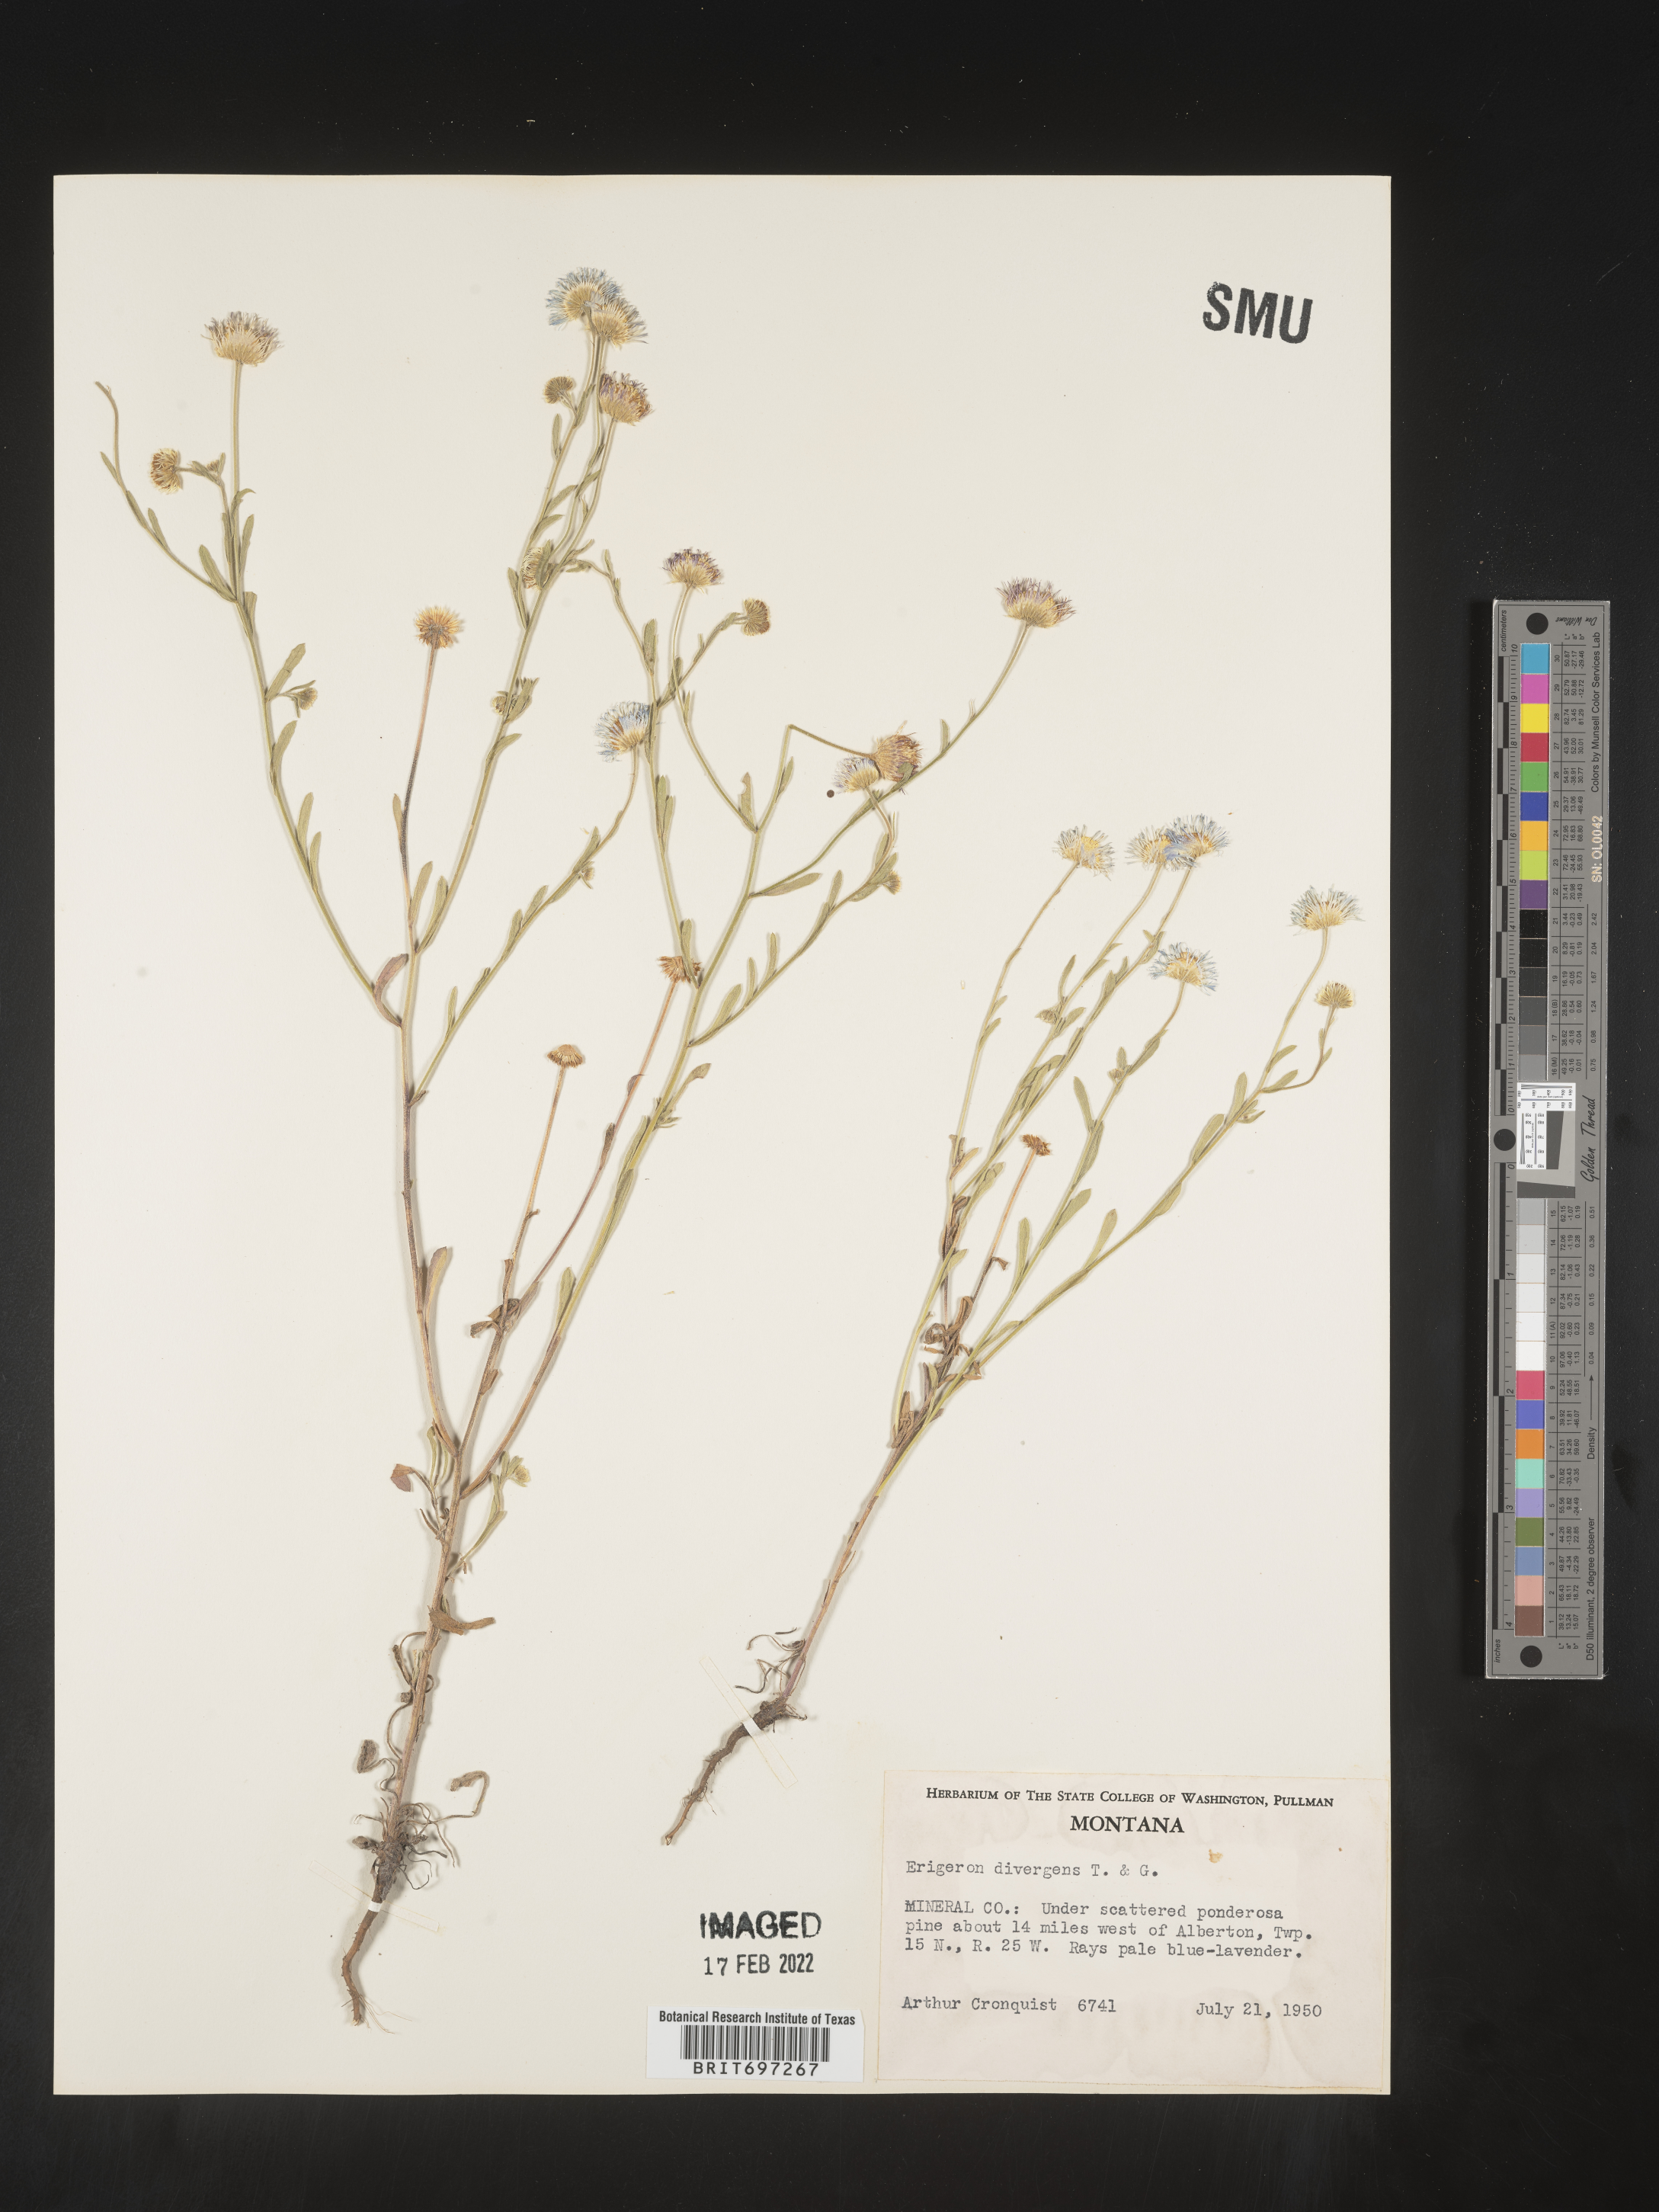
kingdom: Plantae
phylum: Tracheophyta
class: Magnoliopsida
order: Asterales
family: Asteraceae
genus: Erigeron
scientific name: Erigeron divergens
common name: Diffuse fleabane
